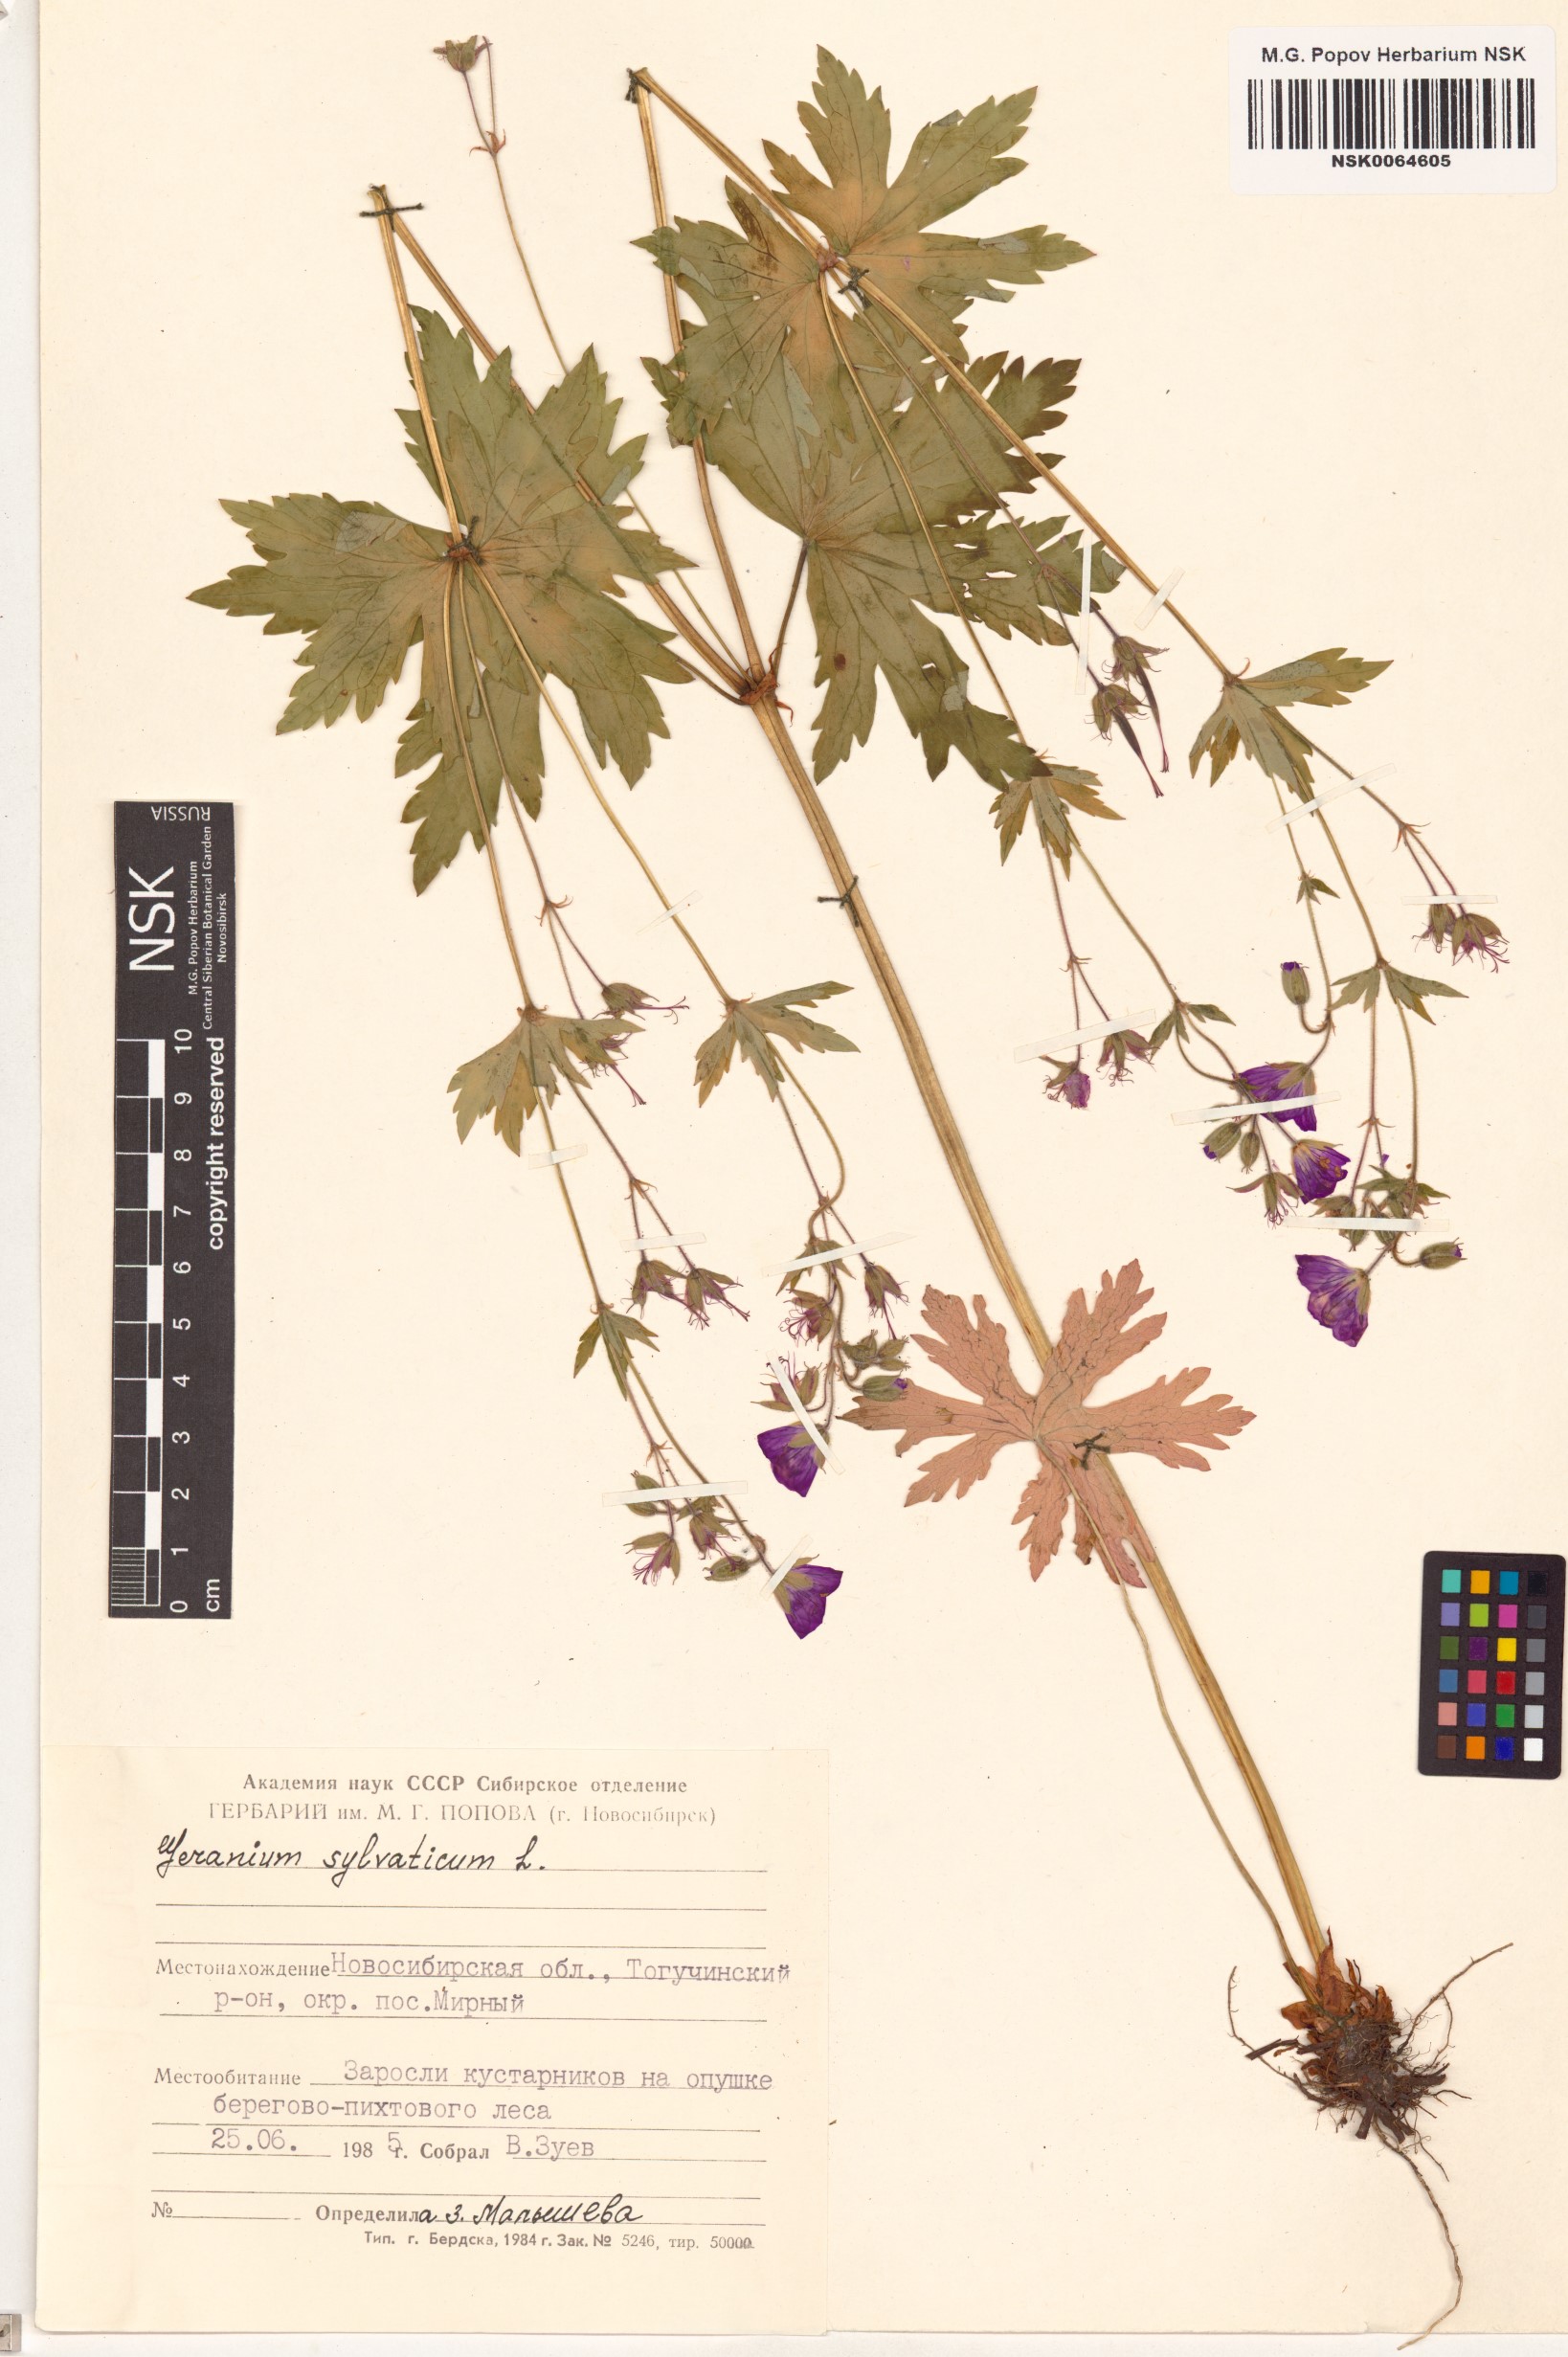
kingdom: Plantae
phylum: Tracheophyta
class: Magnoliopsida
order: Geraniales
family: Geraniaceae
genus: Geranium
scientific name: Geranium sylvaticum
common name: Wood crane's-bill
